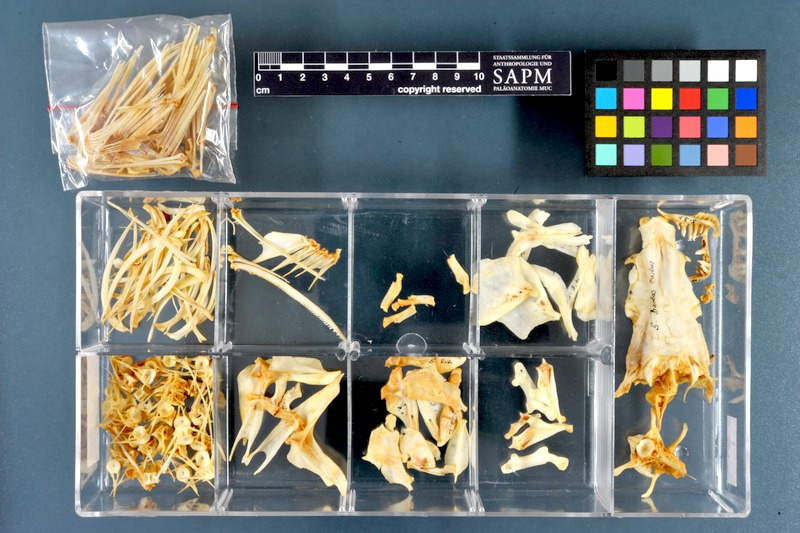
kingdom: Animalia
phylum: Chordata
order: Cypriniformes
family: Cyprinidae
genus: Barbus
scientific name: Barbus barbus
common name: Barbel
